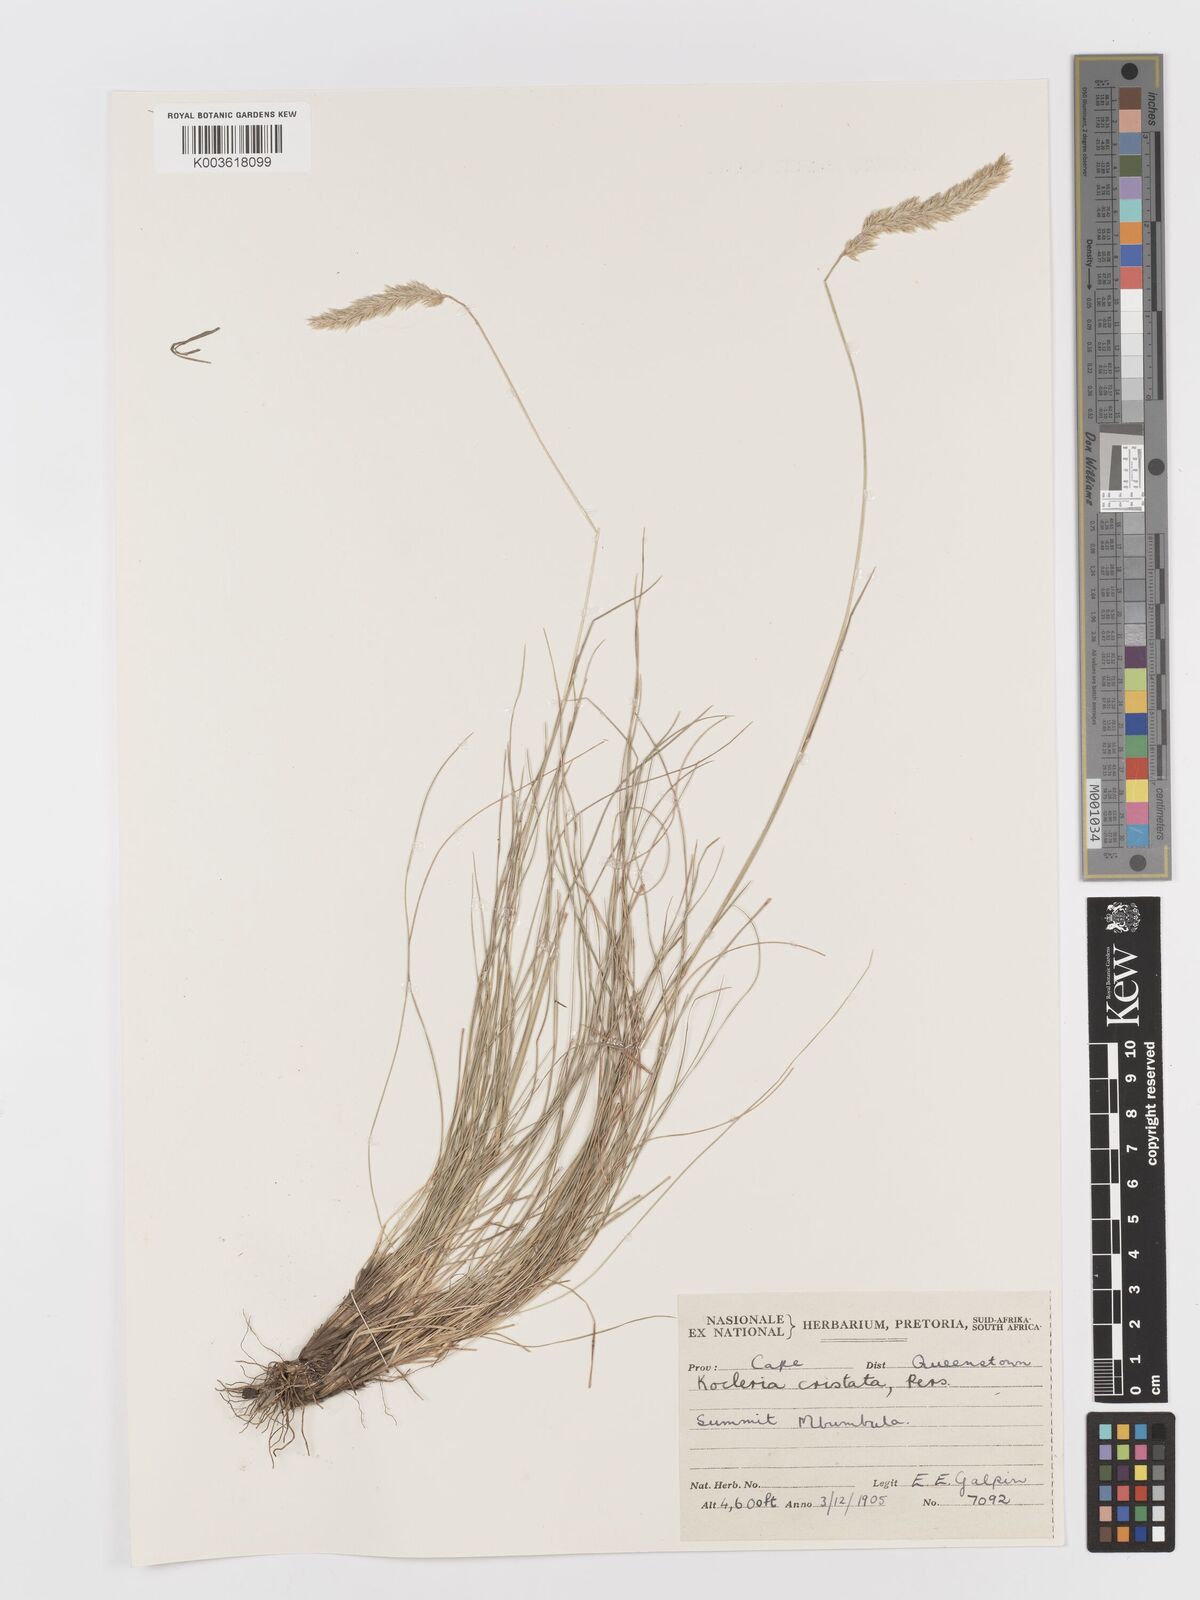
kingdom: Plantae
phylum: Tracheophyta
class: Liliopsida
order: Poales
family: Poaceae
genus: Koeleria
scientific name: Koeleria capensis
